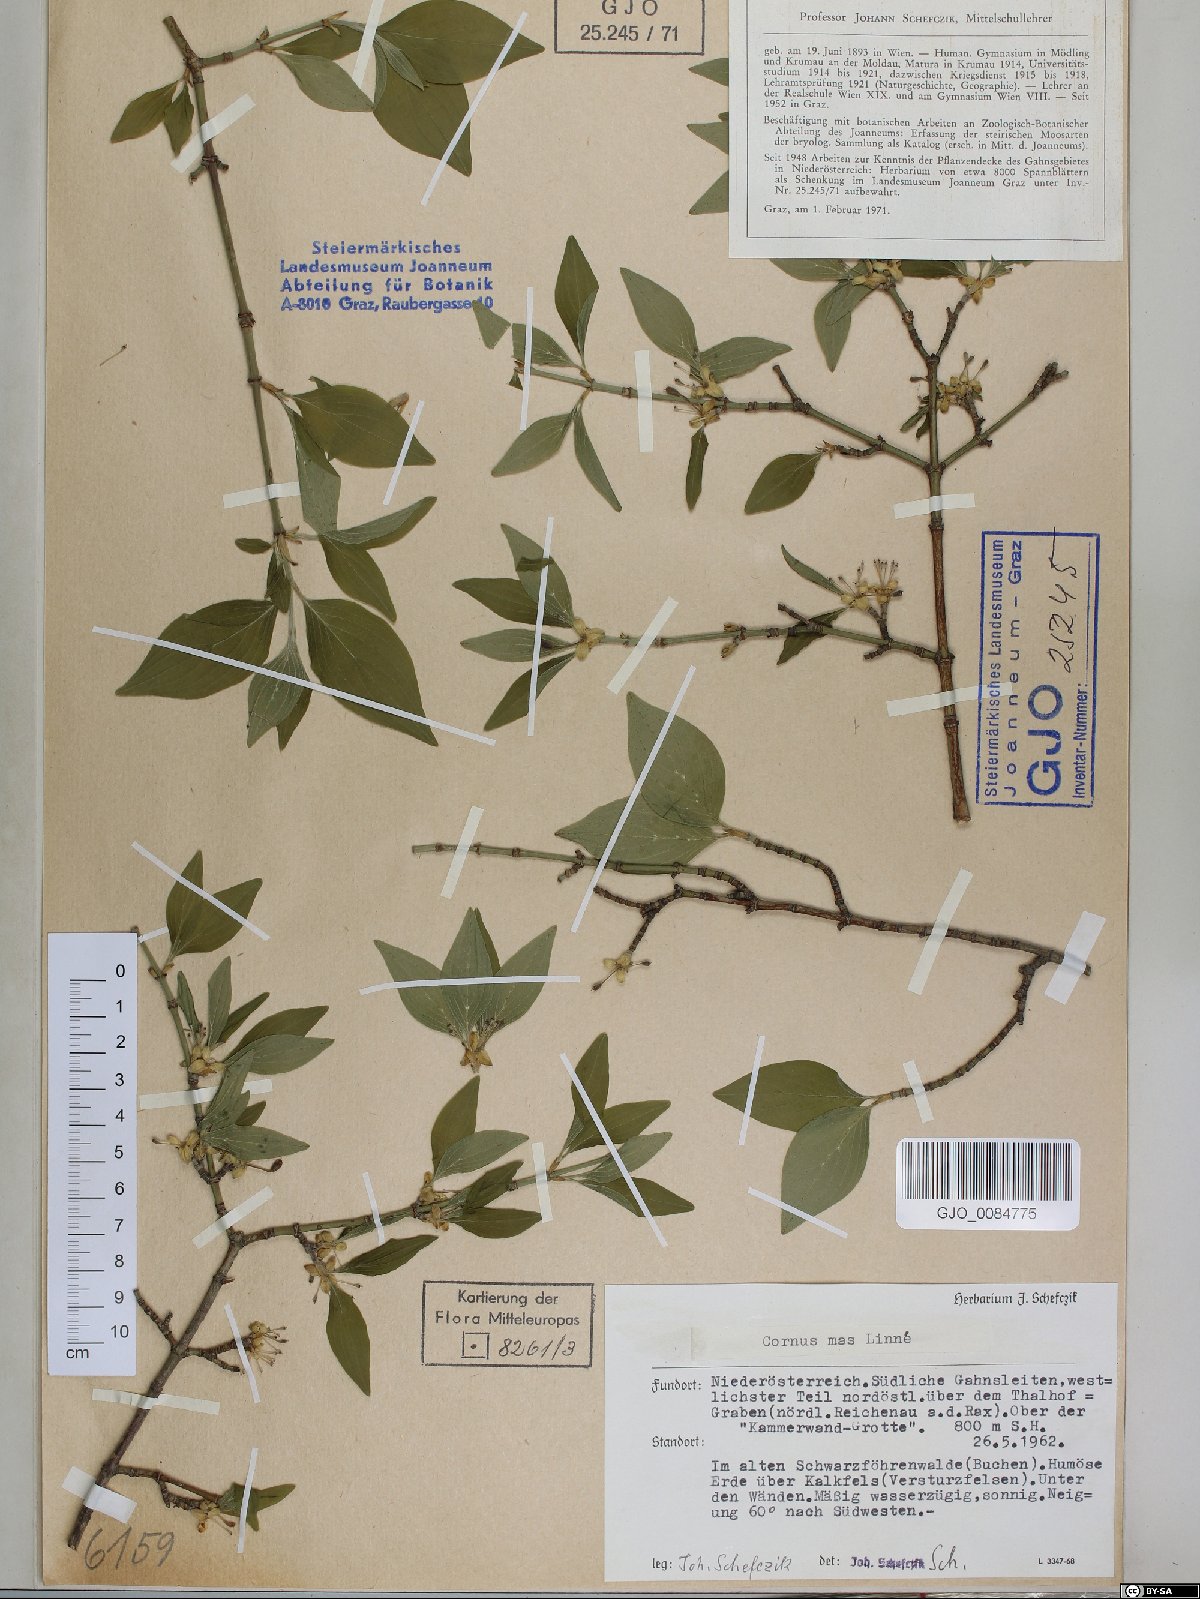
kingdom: Plantae
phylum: Tracheophyta
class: Magnoliopsida
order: Cornales
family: Cornaceae
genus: Cornus
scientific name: Cornus mas
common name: Cornelian-cherry
